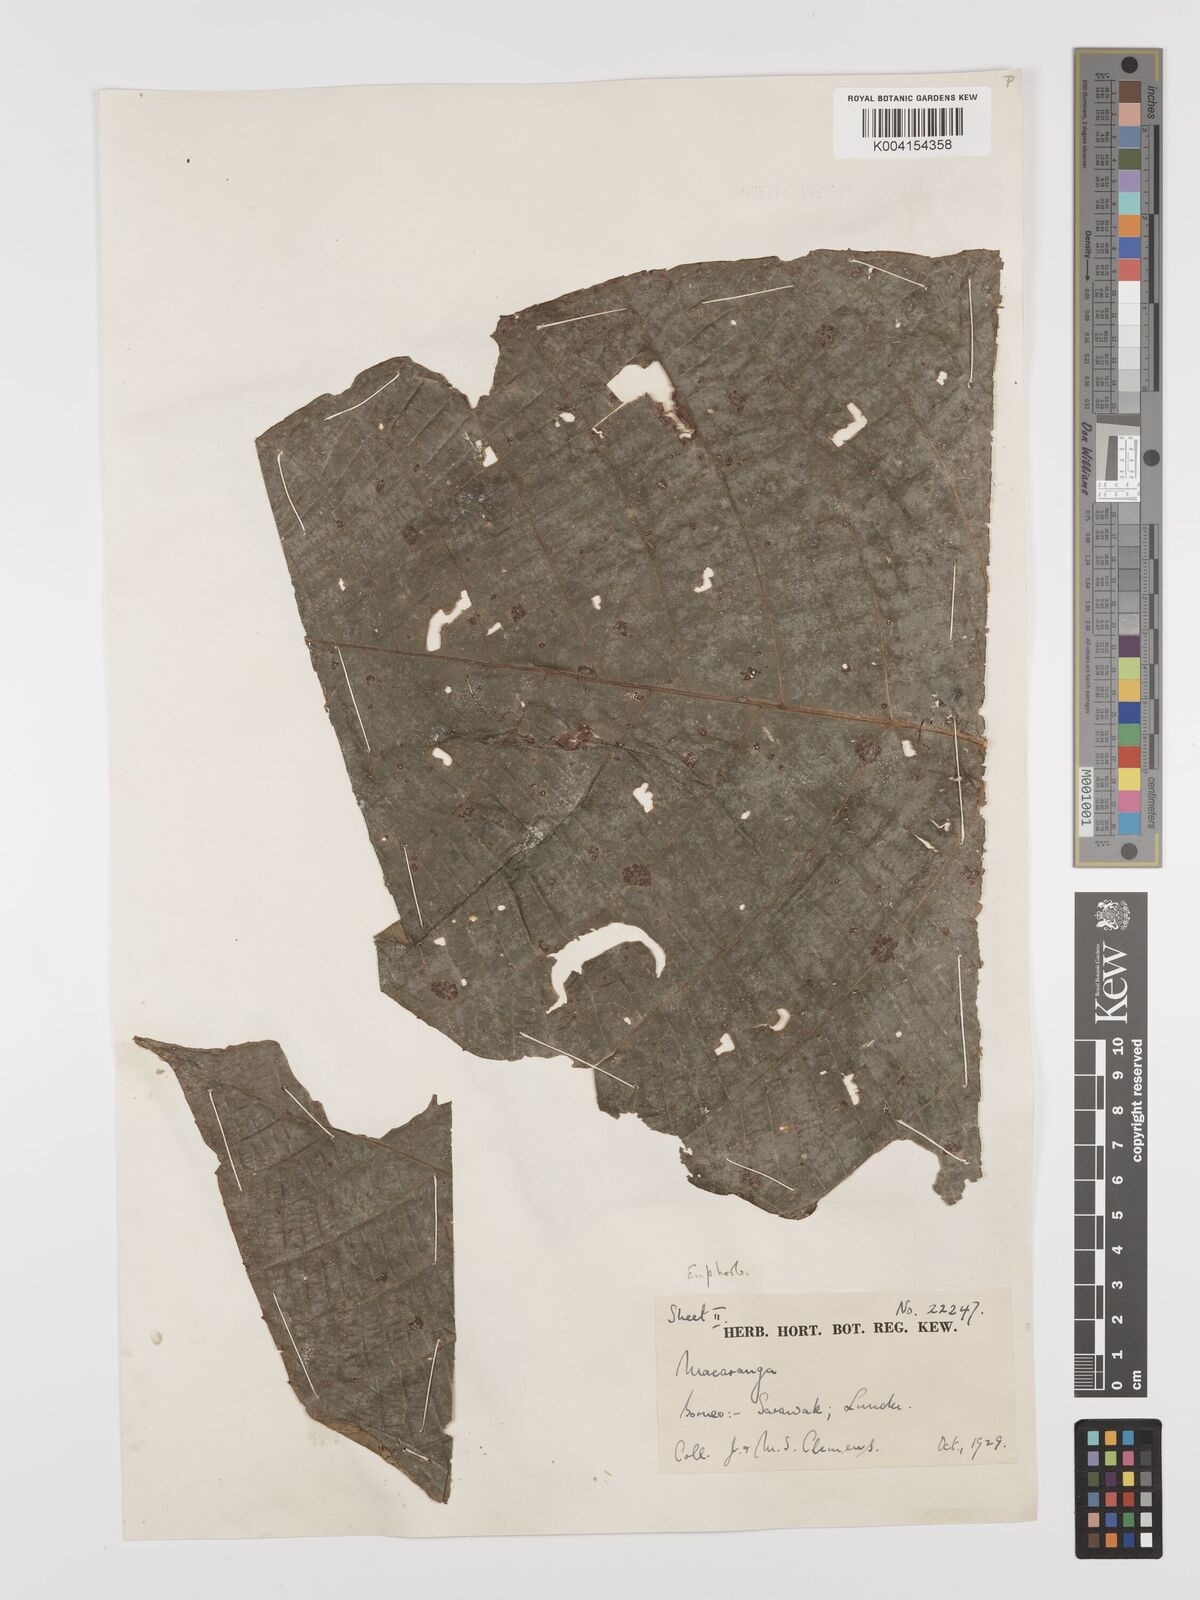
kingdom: Plantae
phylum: Tracheophyta
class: Magnoliopsida
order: Malpighiales
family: Euphorbiaceae
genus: Macaranga
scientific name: Macaranga umbrosa
